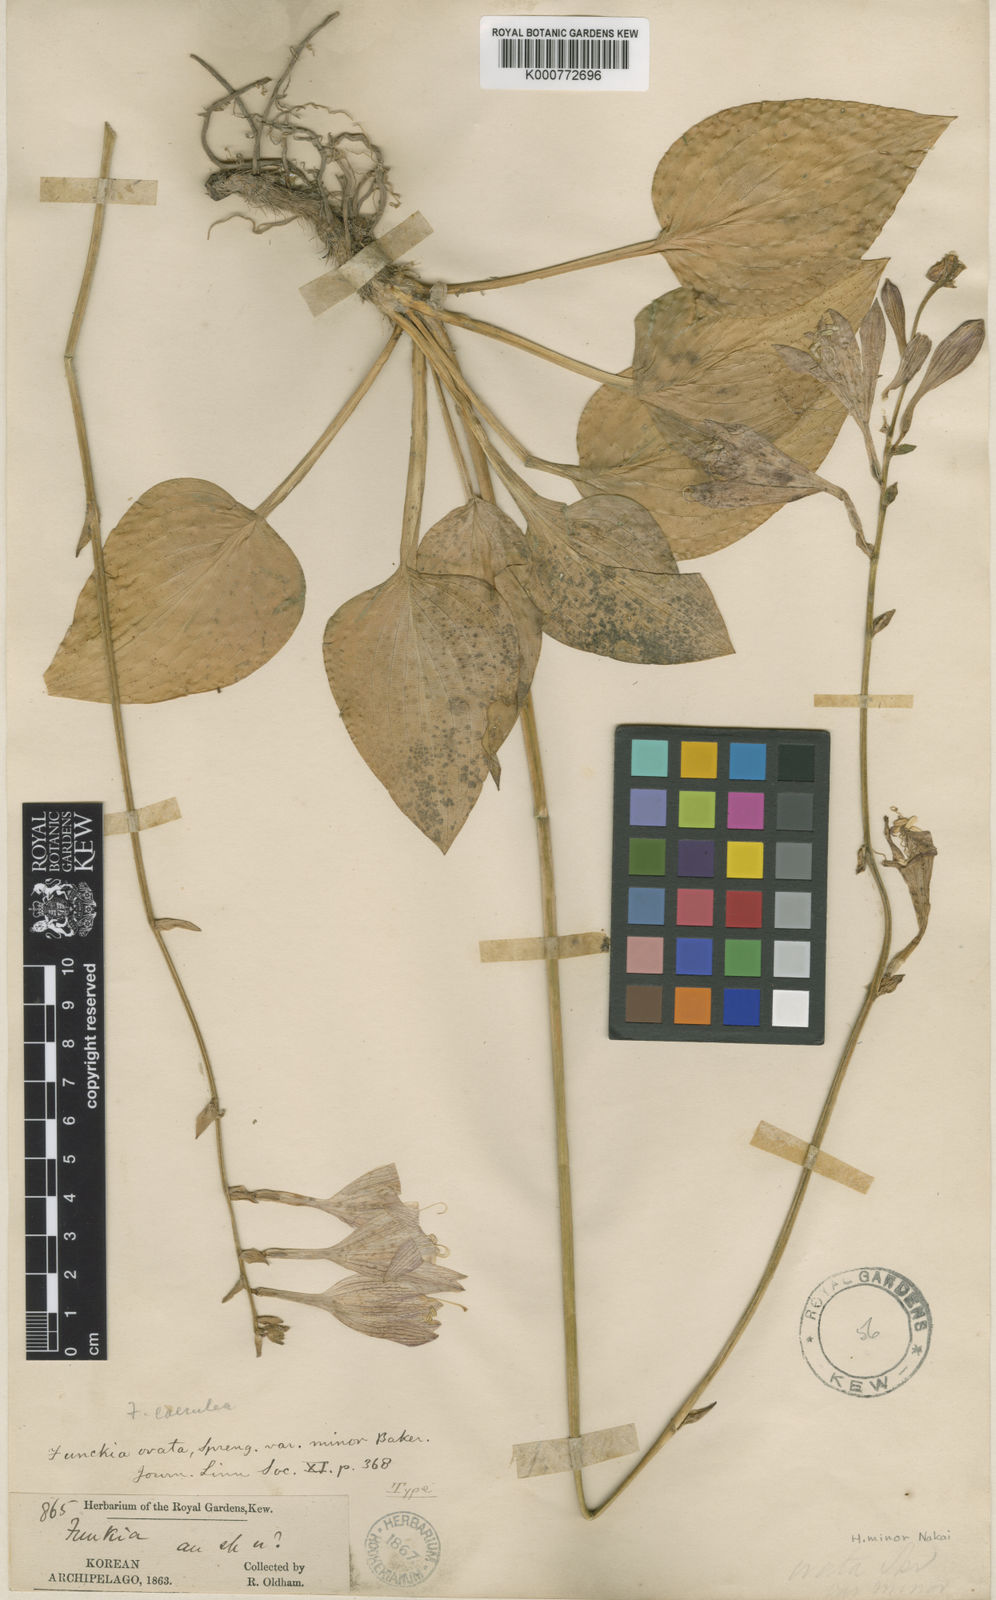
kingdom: Plantae
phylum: Tracheophyta
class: Liliopsida
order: Asparagales
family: Asparagaceae
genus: Hosta
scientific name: Hosta minor
